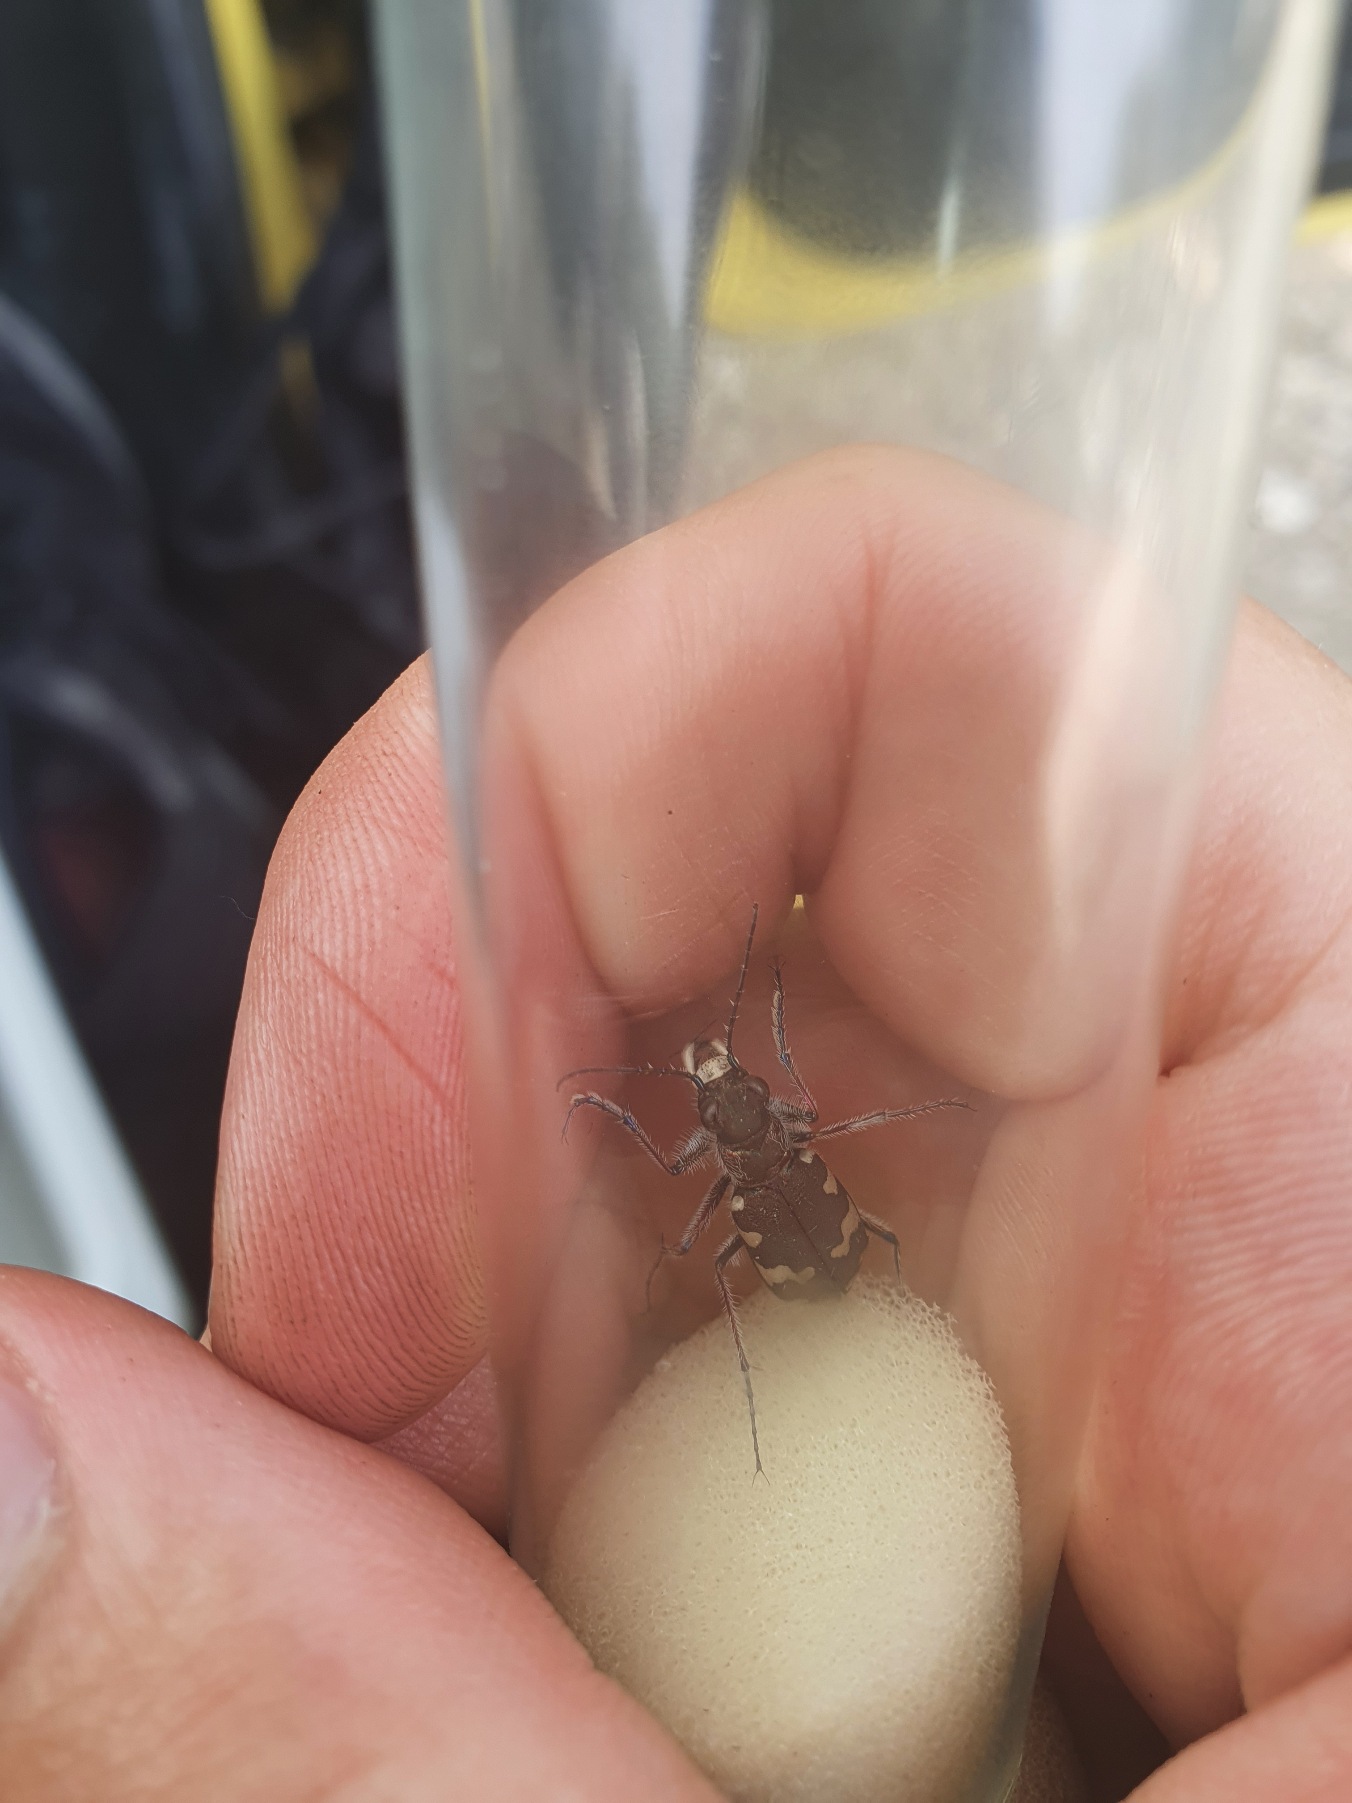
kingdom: Animalia
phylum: Arthropoda
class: Insecta
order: Coleoptera
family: Carabidae
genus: Cicindela
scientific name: Cicindela hybrida
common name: Brun sandspringer
